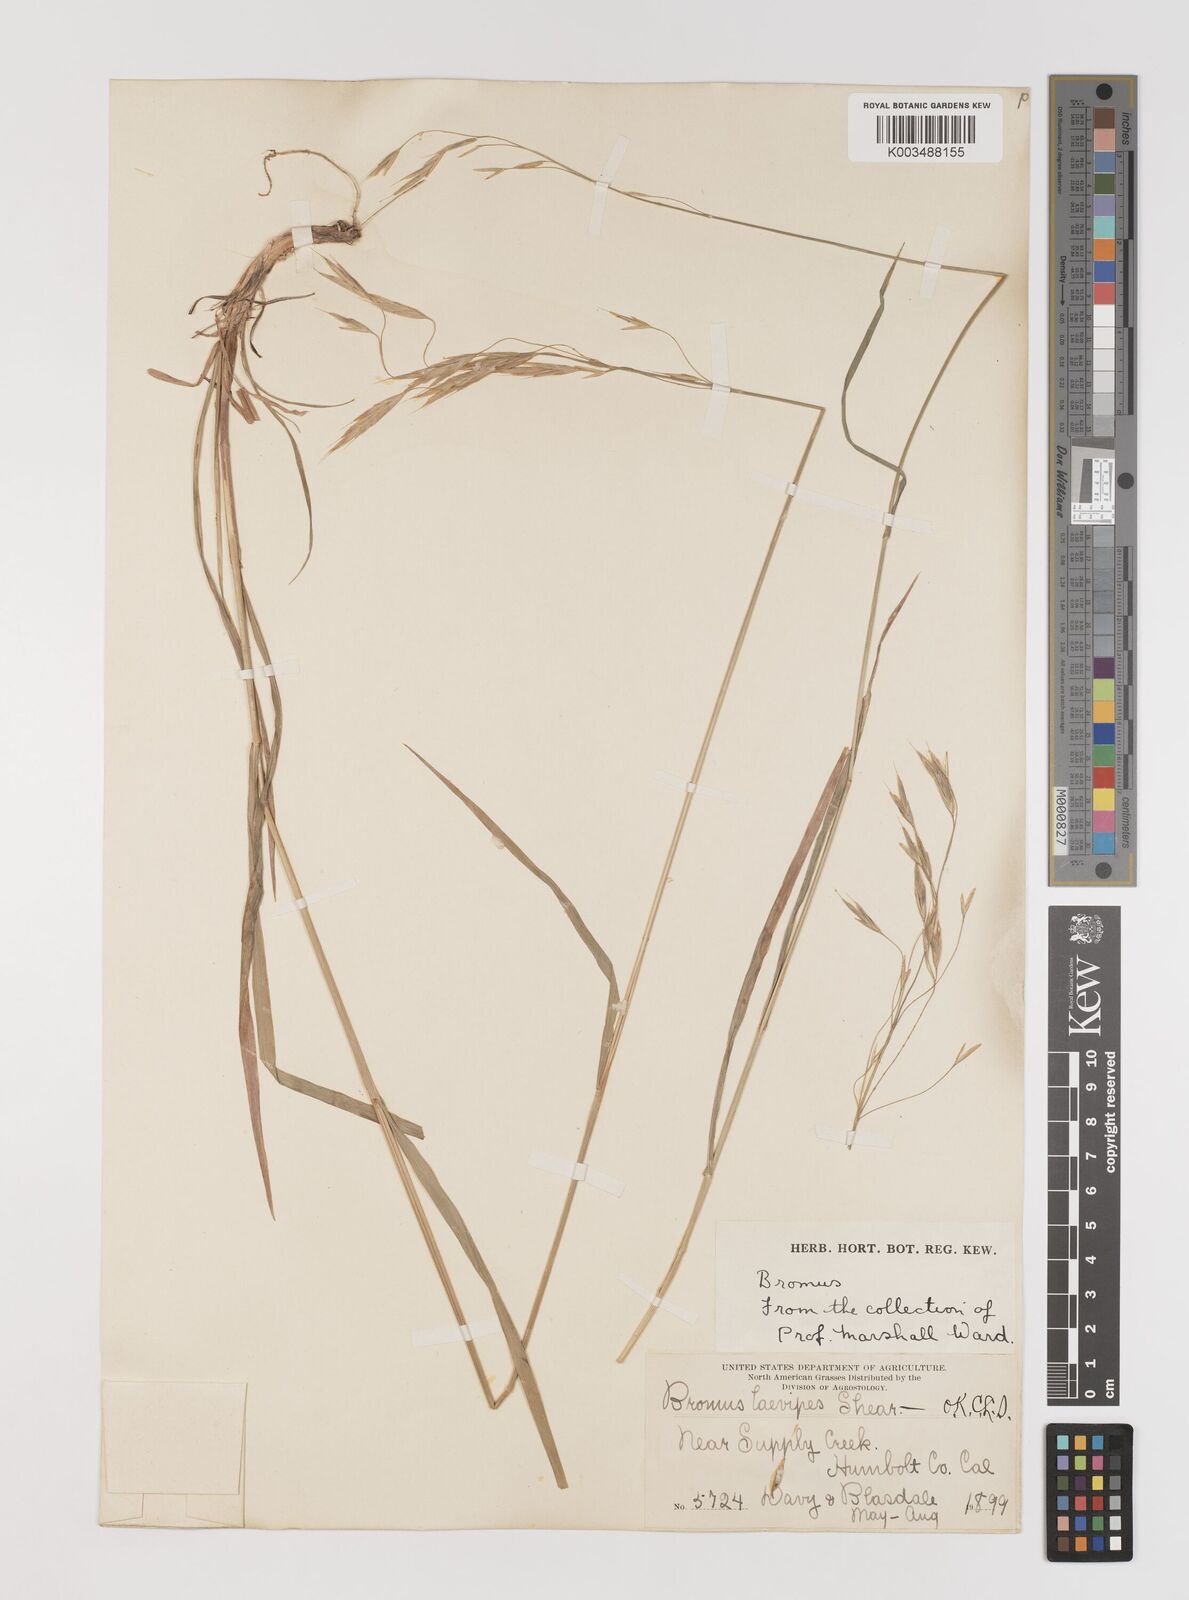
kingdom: Plantae
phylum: Tracheophyta
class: Liliopsida
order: Poales
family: Poaceae
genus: Bromus
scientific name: Bromus laevipes
